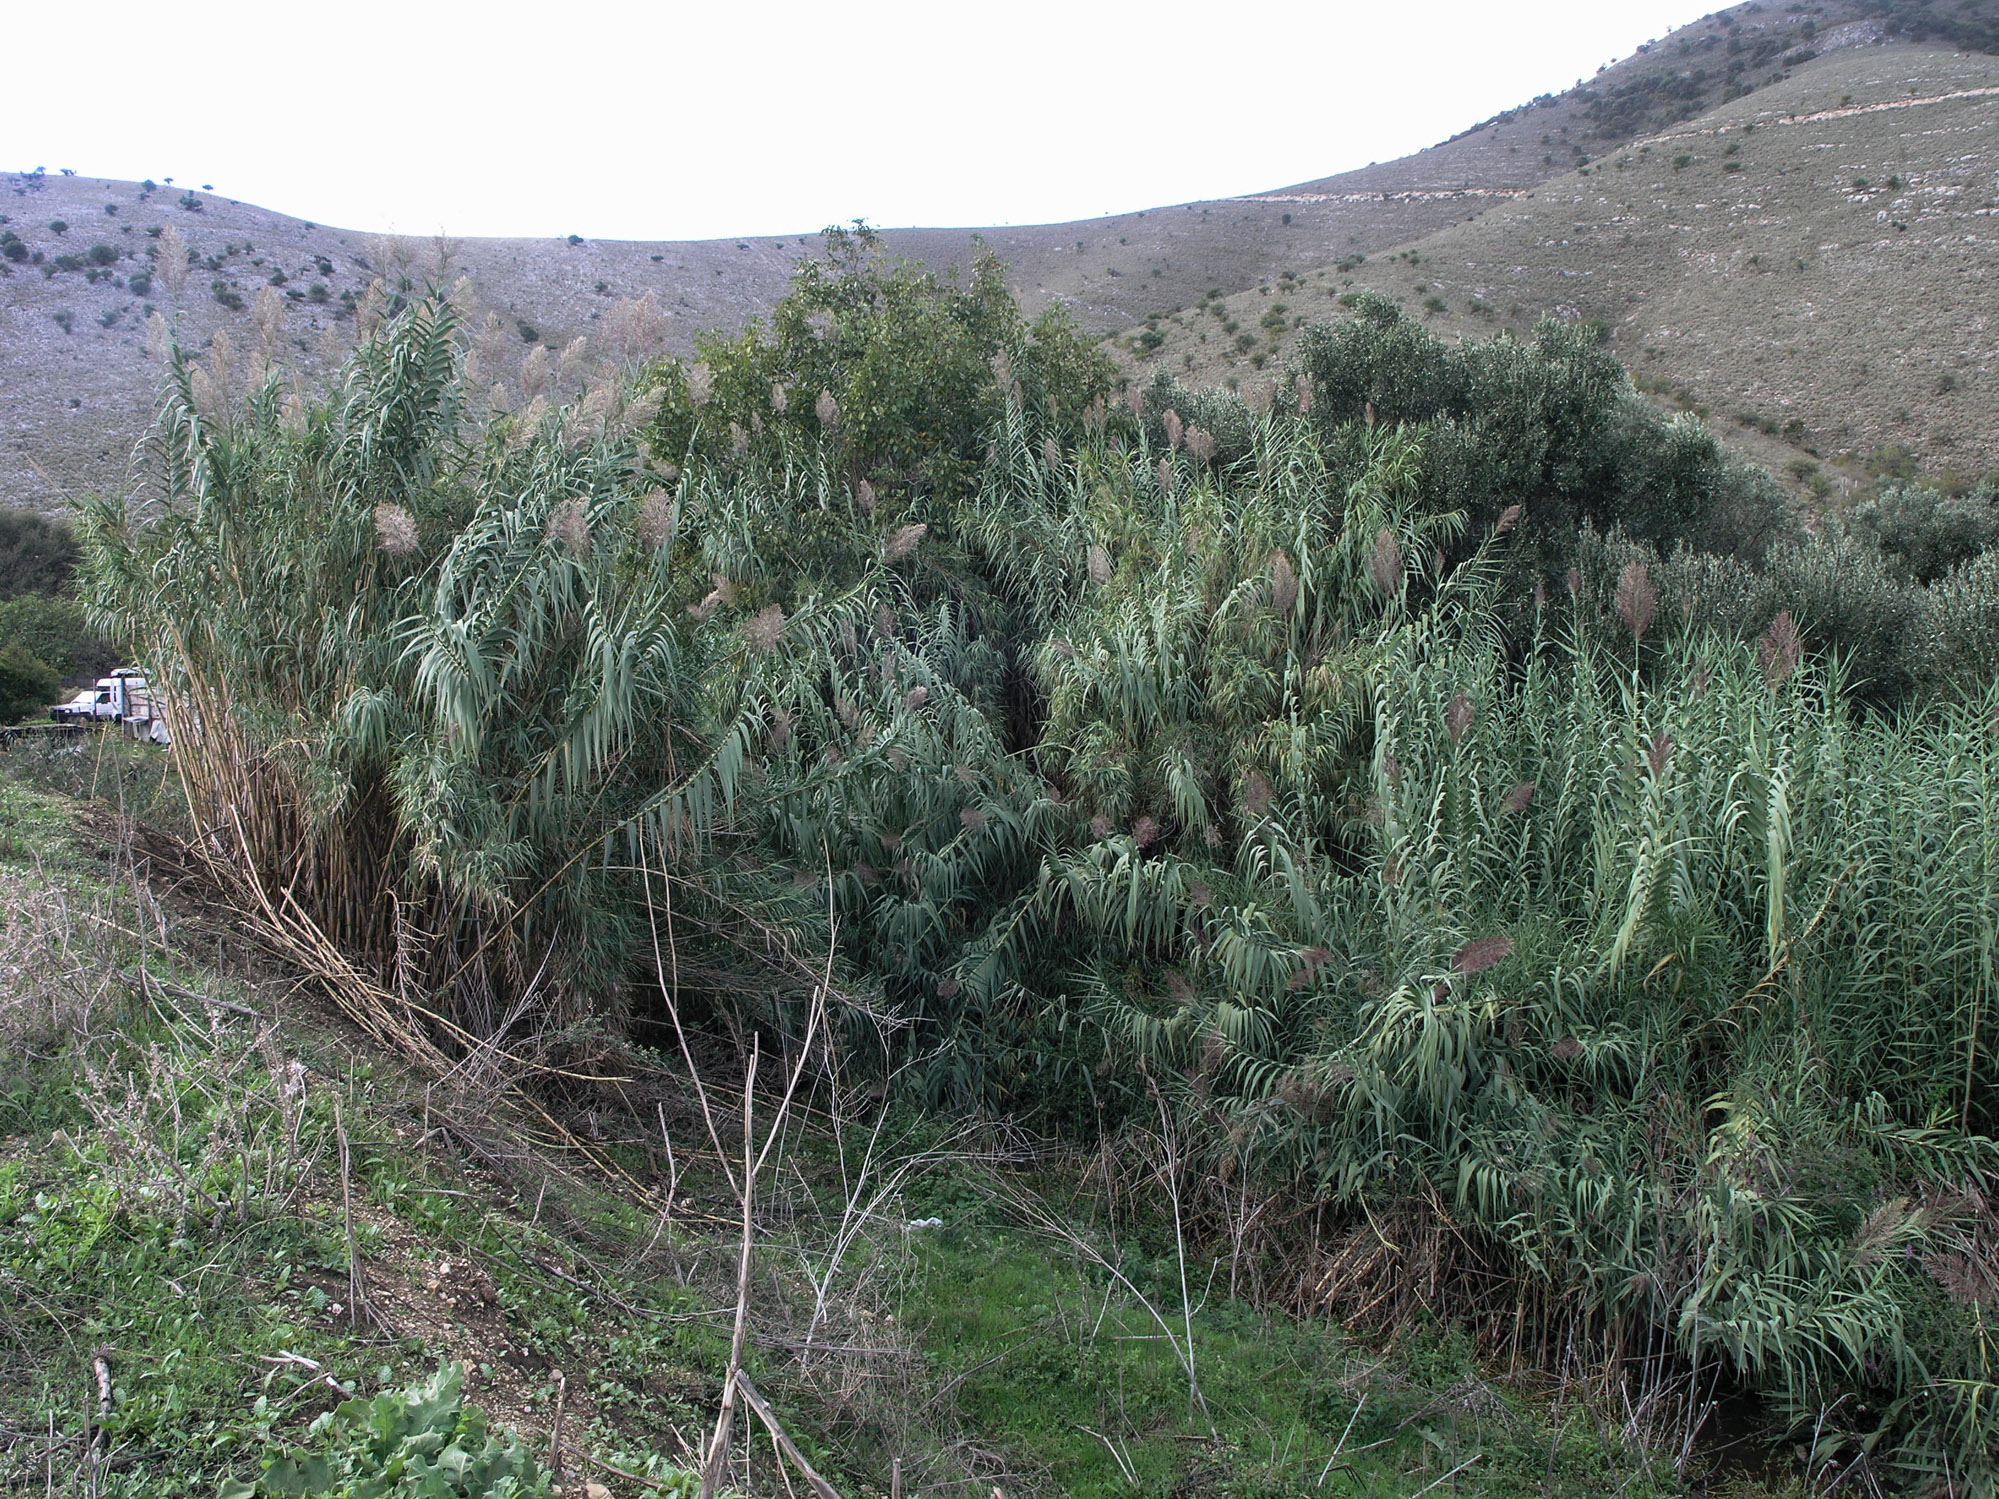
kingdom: Plantae
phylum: Tracheophyta
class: Liliopsida
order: Poales
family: Poaceae
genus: Arundo
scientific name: Arundo donax
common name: Giant reed
